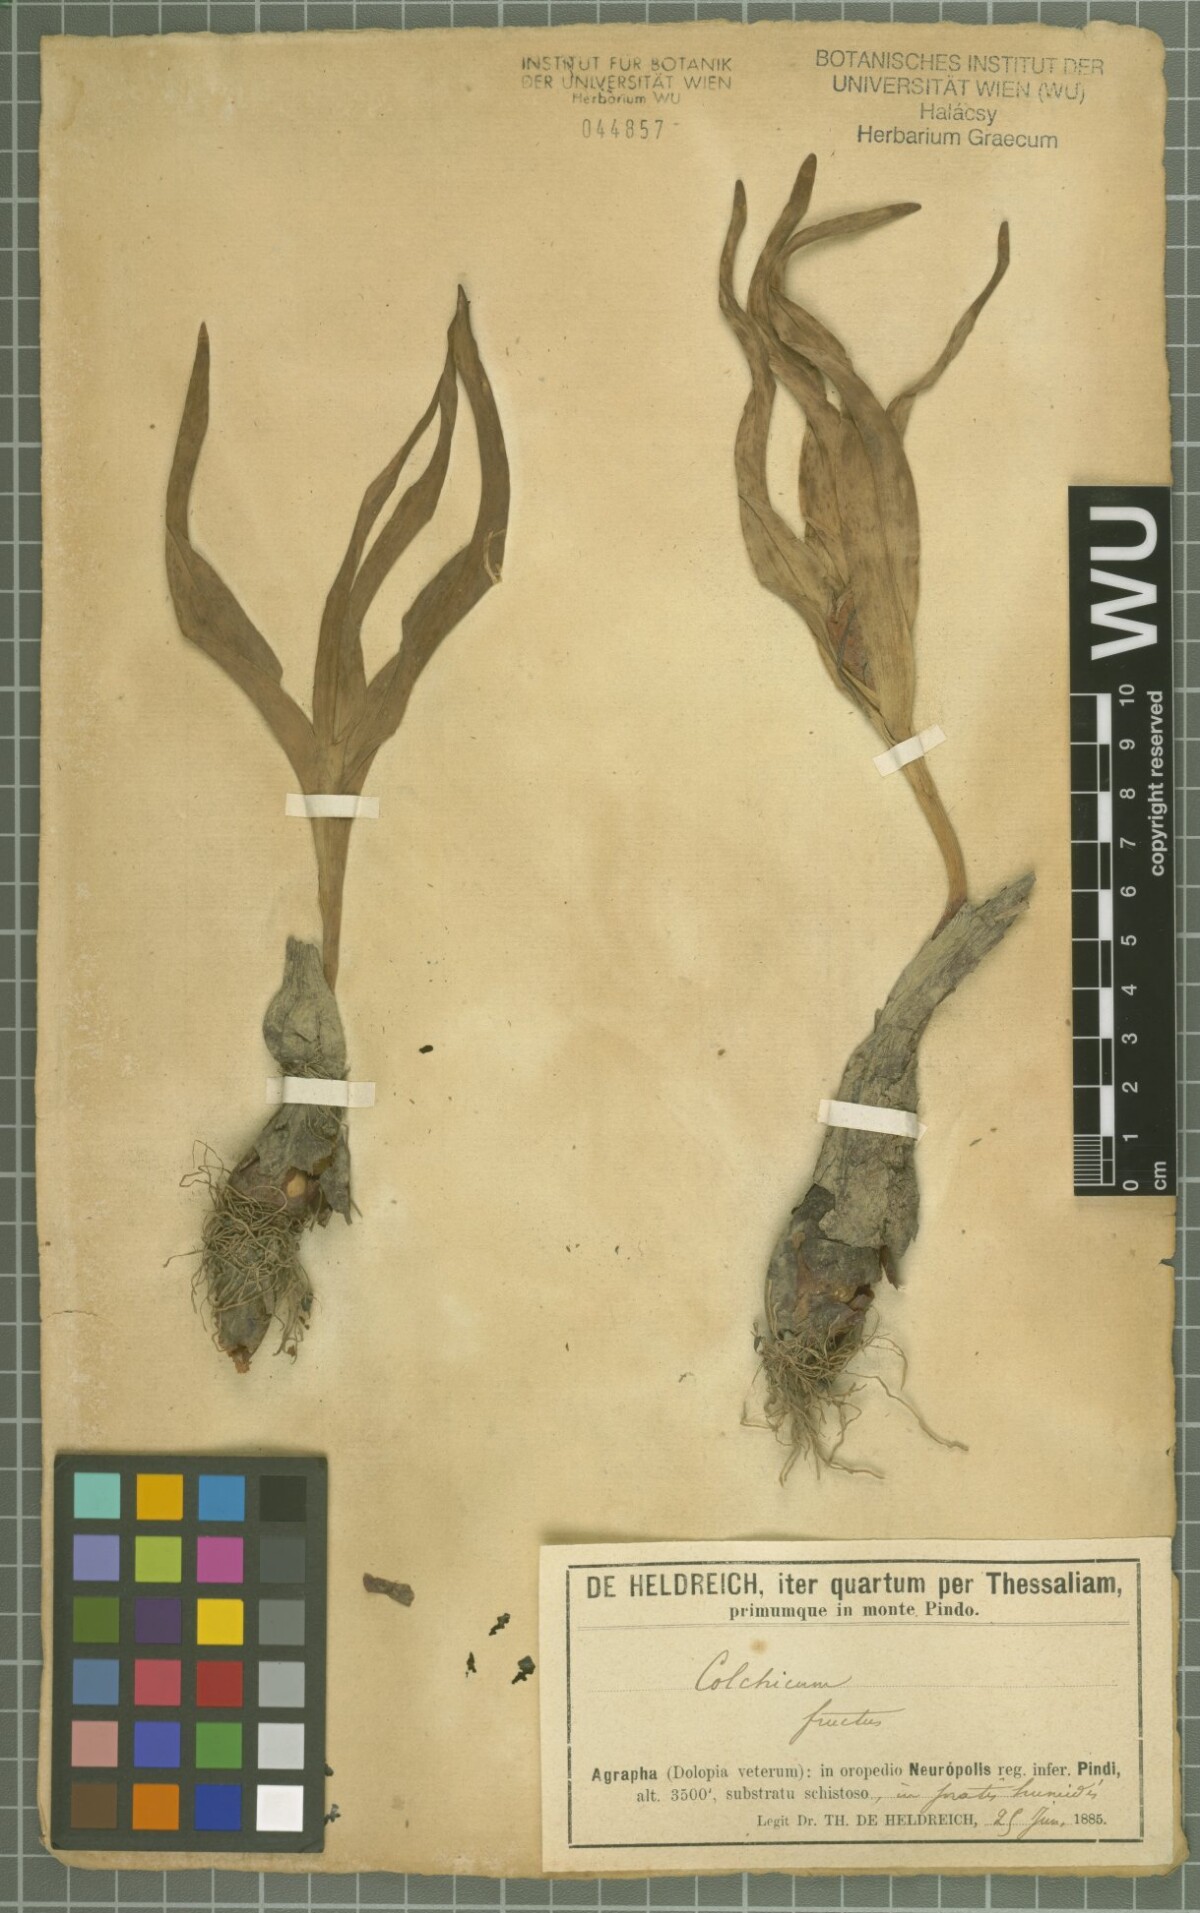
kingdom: Plantae
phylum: Tracheophyta
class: Liliopsida
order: Liliales
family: Colchicaceae
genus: Colchicum
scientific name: Colchicum confusum
